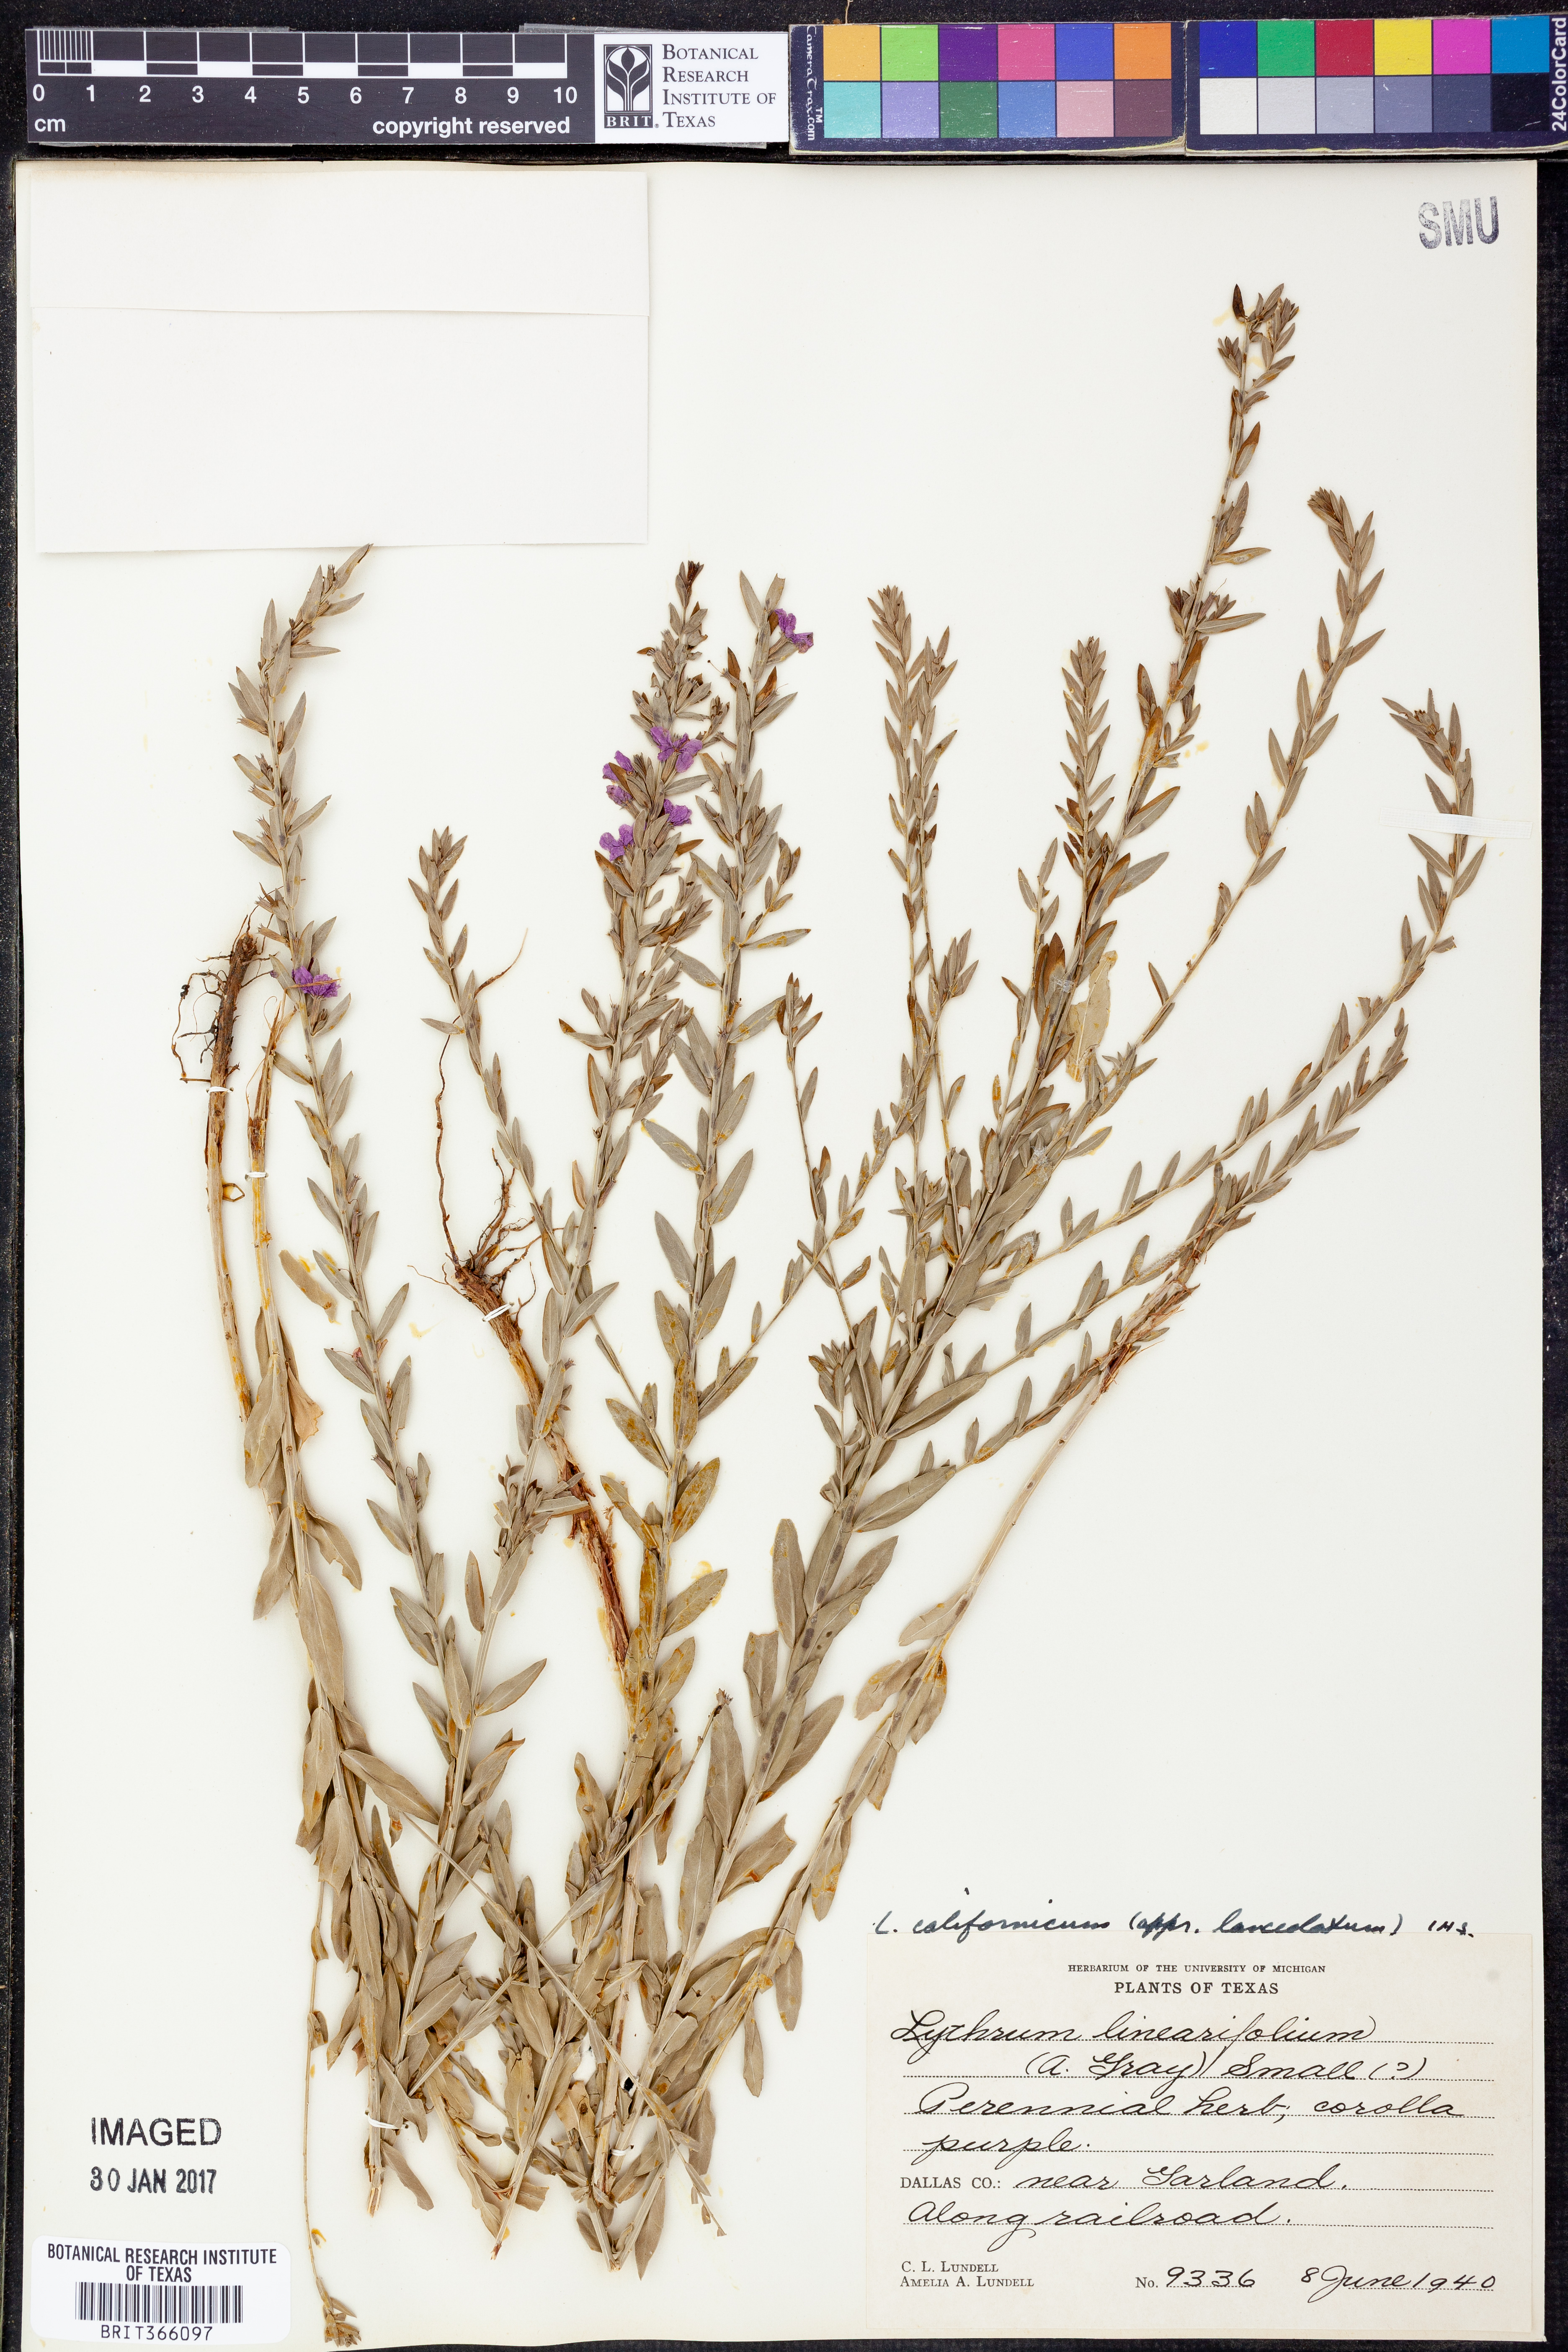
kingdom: Plantae
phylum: Tracheophyta
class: Magnoliopsida
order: Myrtales
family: Lythraceae
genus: Lythrum
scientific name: Lythrum californicum
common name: California loosestrife
